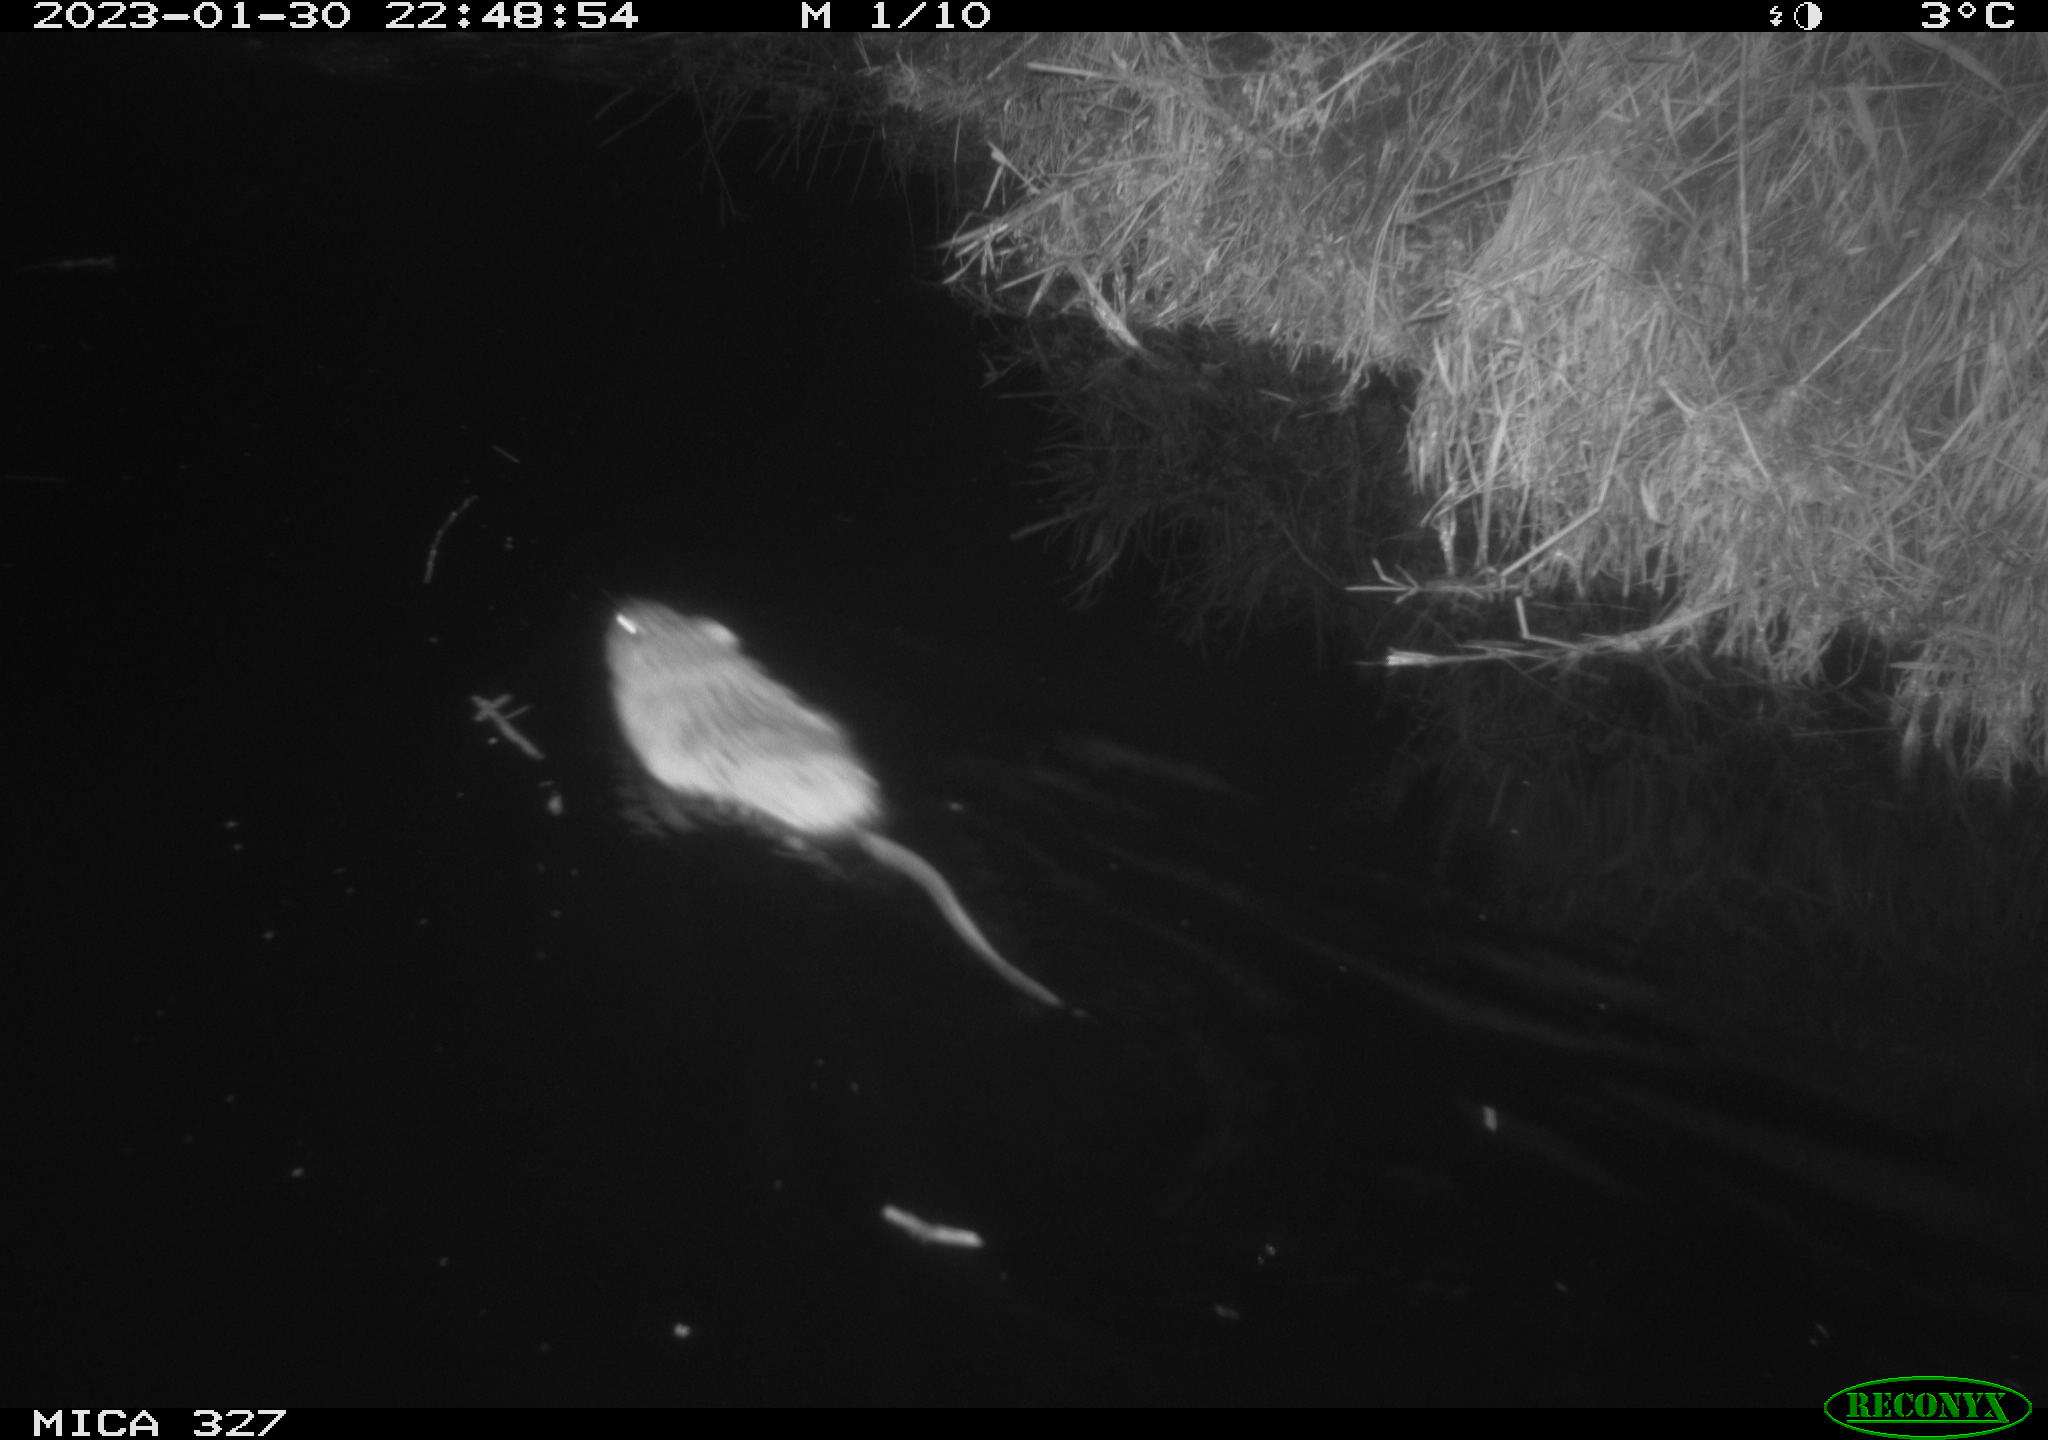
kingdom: Animalia
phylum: Chordata
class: Mammalia
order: Rodentia
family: Cricetidae
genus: Ondatra
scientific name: Ondatra zibethicus
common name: Muskrat
